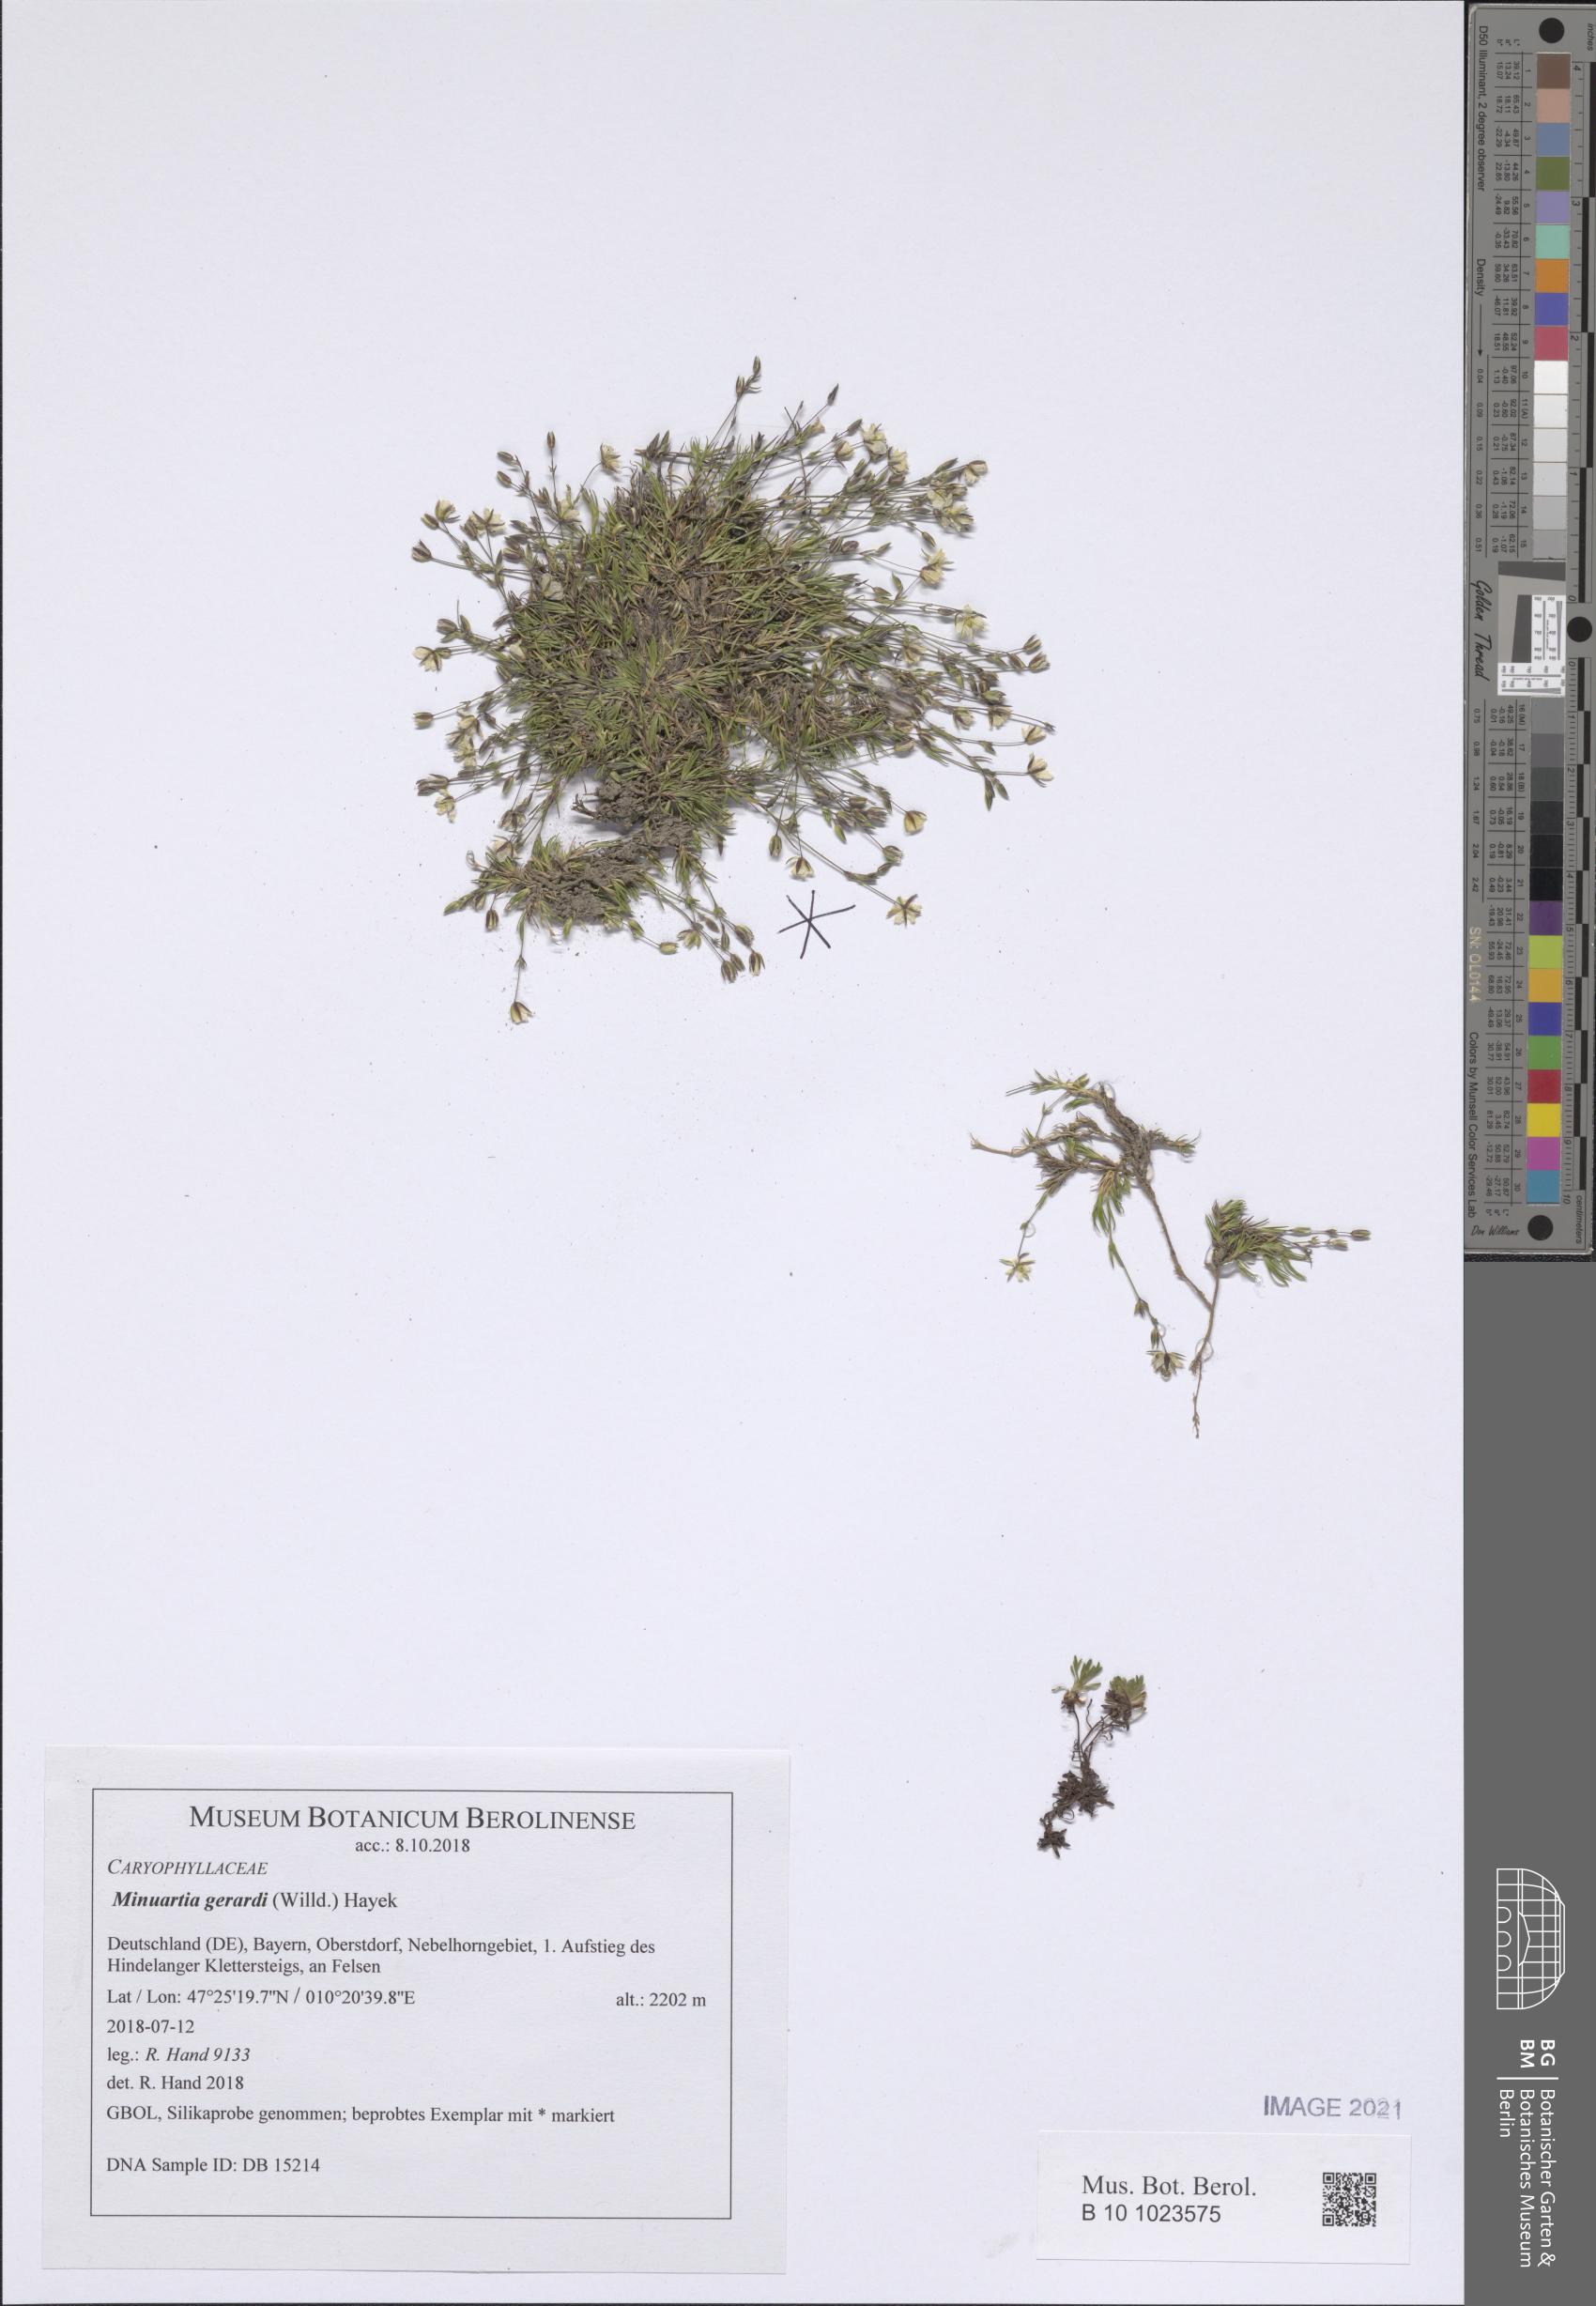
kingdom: Plantae
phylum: Tracheophyta
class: Magnoliopsida
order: Caryophyllales
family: Caryophyllaceae
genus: Sabulina
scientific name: Sabulina verna
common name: Spring sandwort
